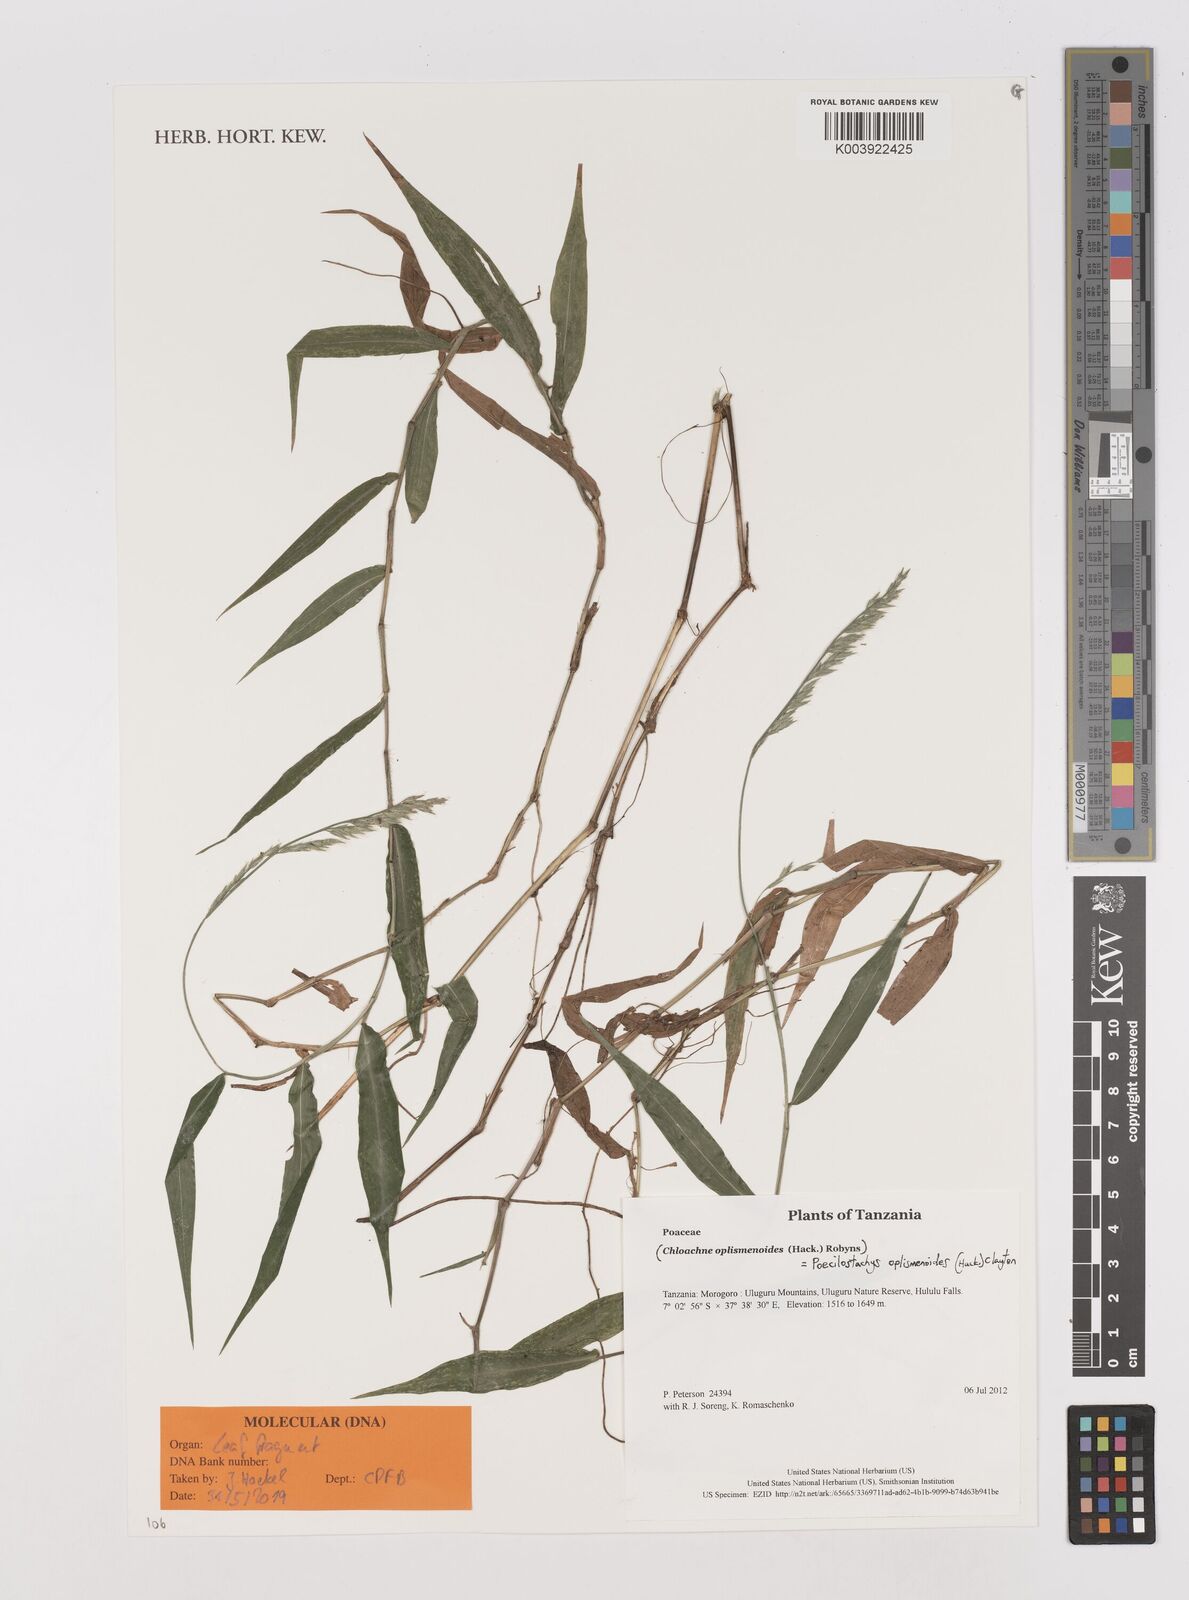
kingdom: Plantae
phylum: Tracheophyta
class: Liliopsida
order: Poales
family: Poaceae
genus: Poecilostachys
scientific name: Poecilostachys oplismenoides
